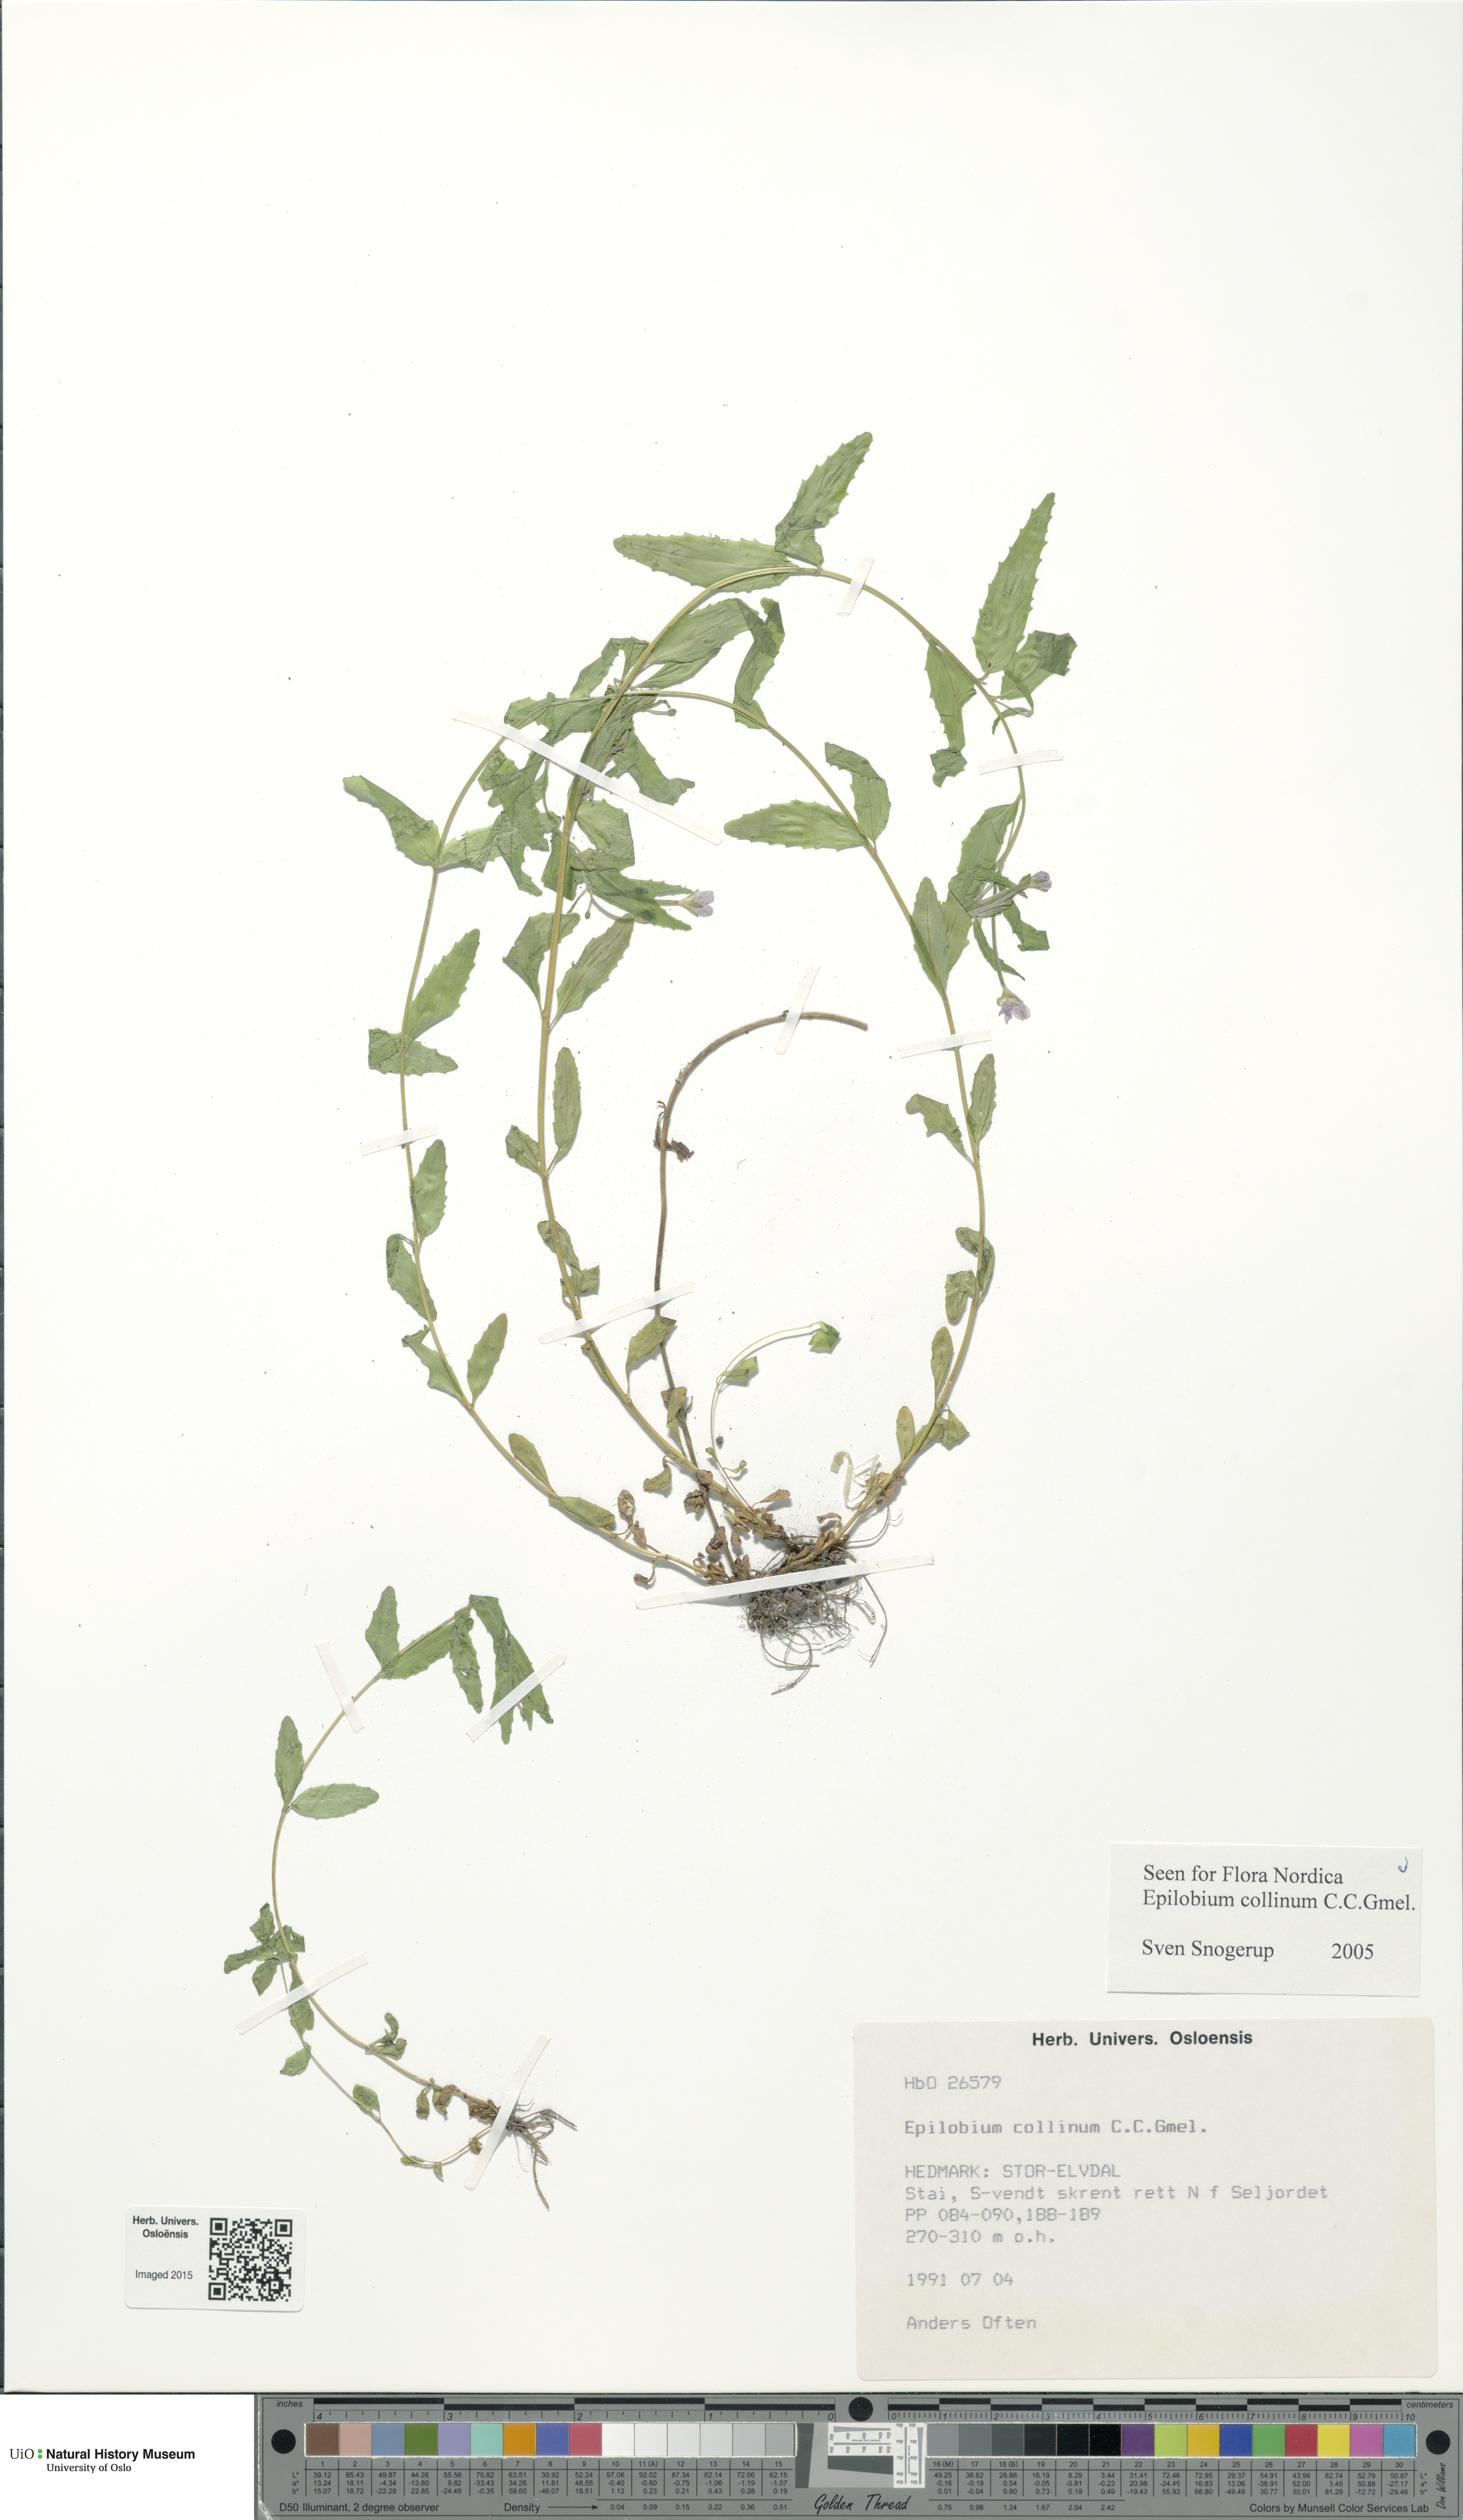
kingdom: Plantae
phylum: Tracheophyta
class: Magnoliopsida
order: Myrtales
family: Onagraceae
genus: Epilobium
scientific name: Epilobium collinum
